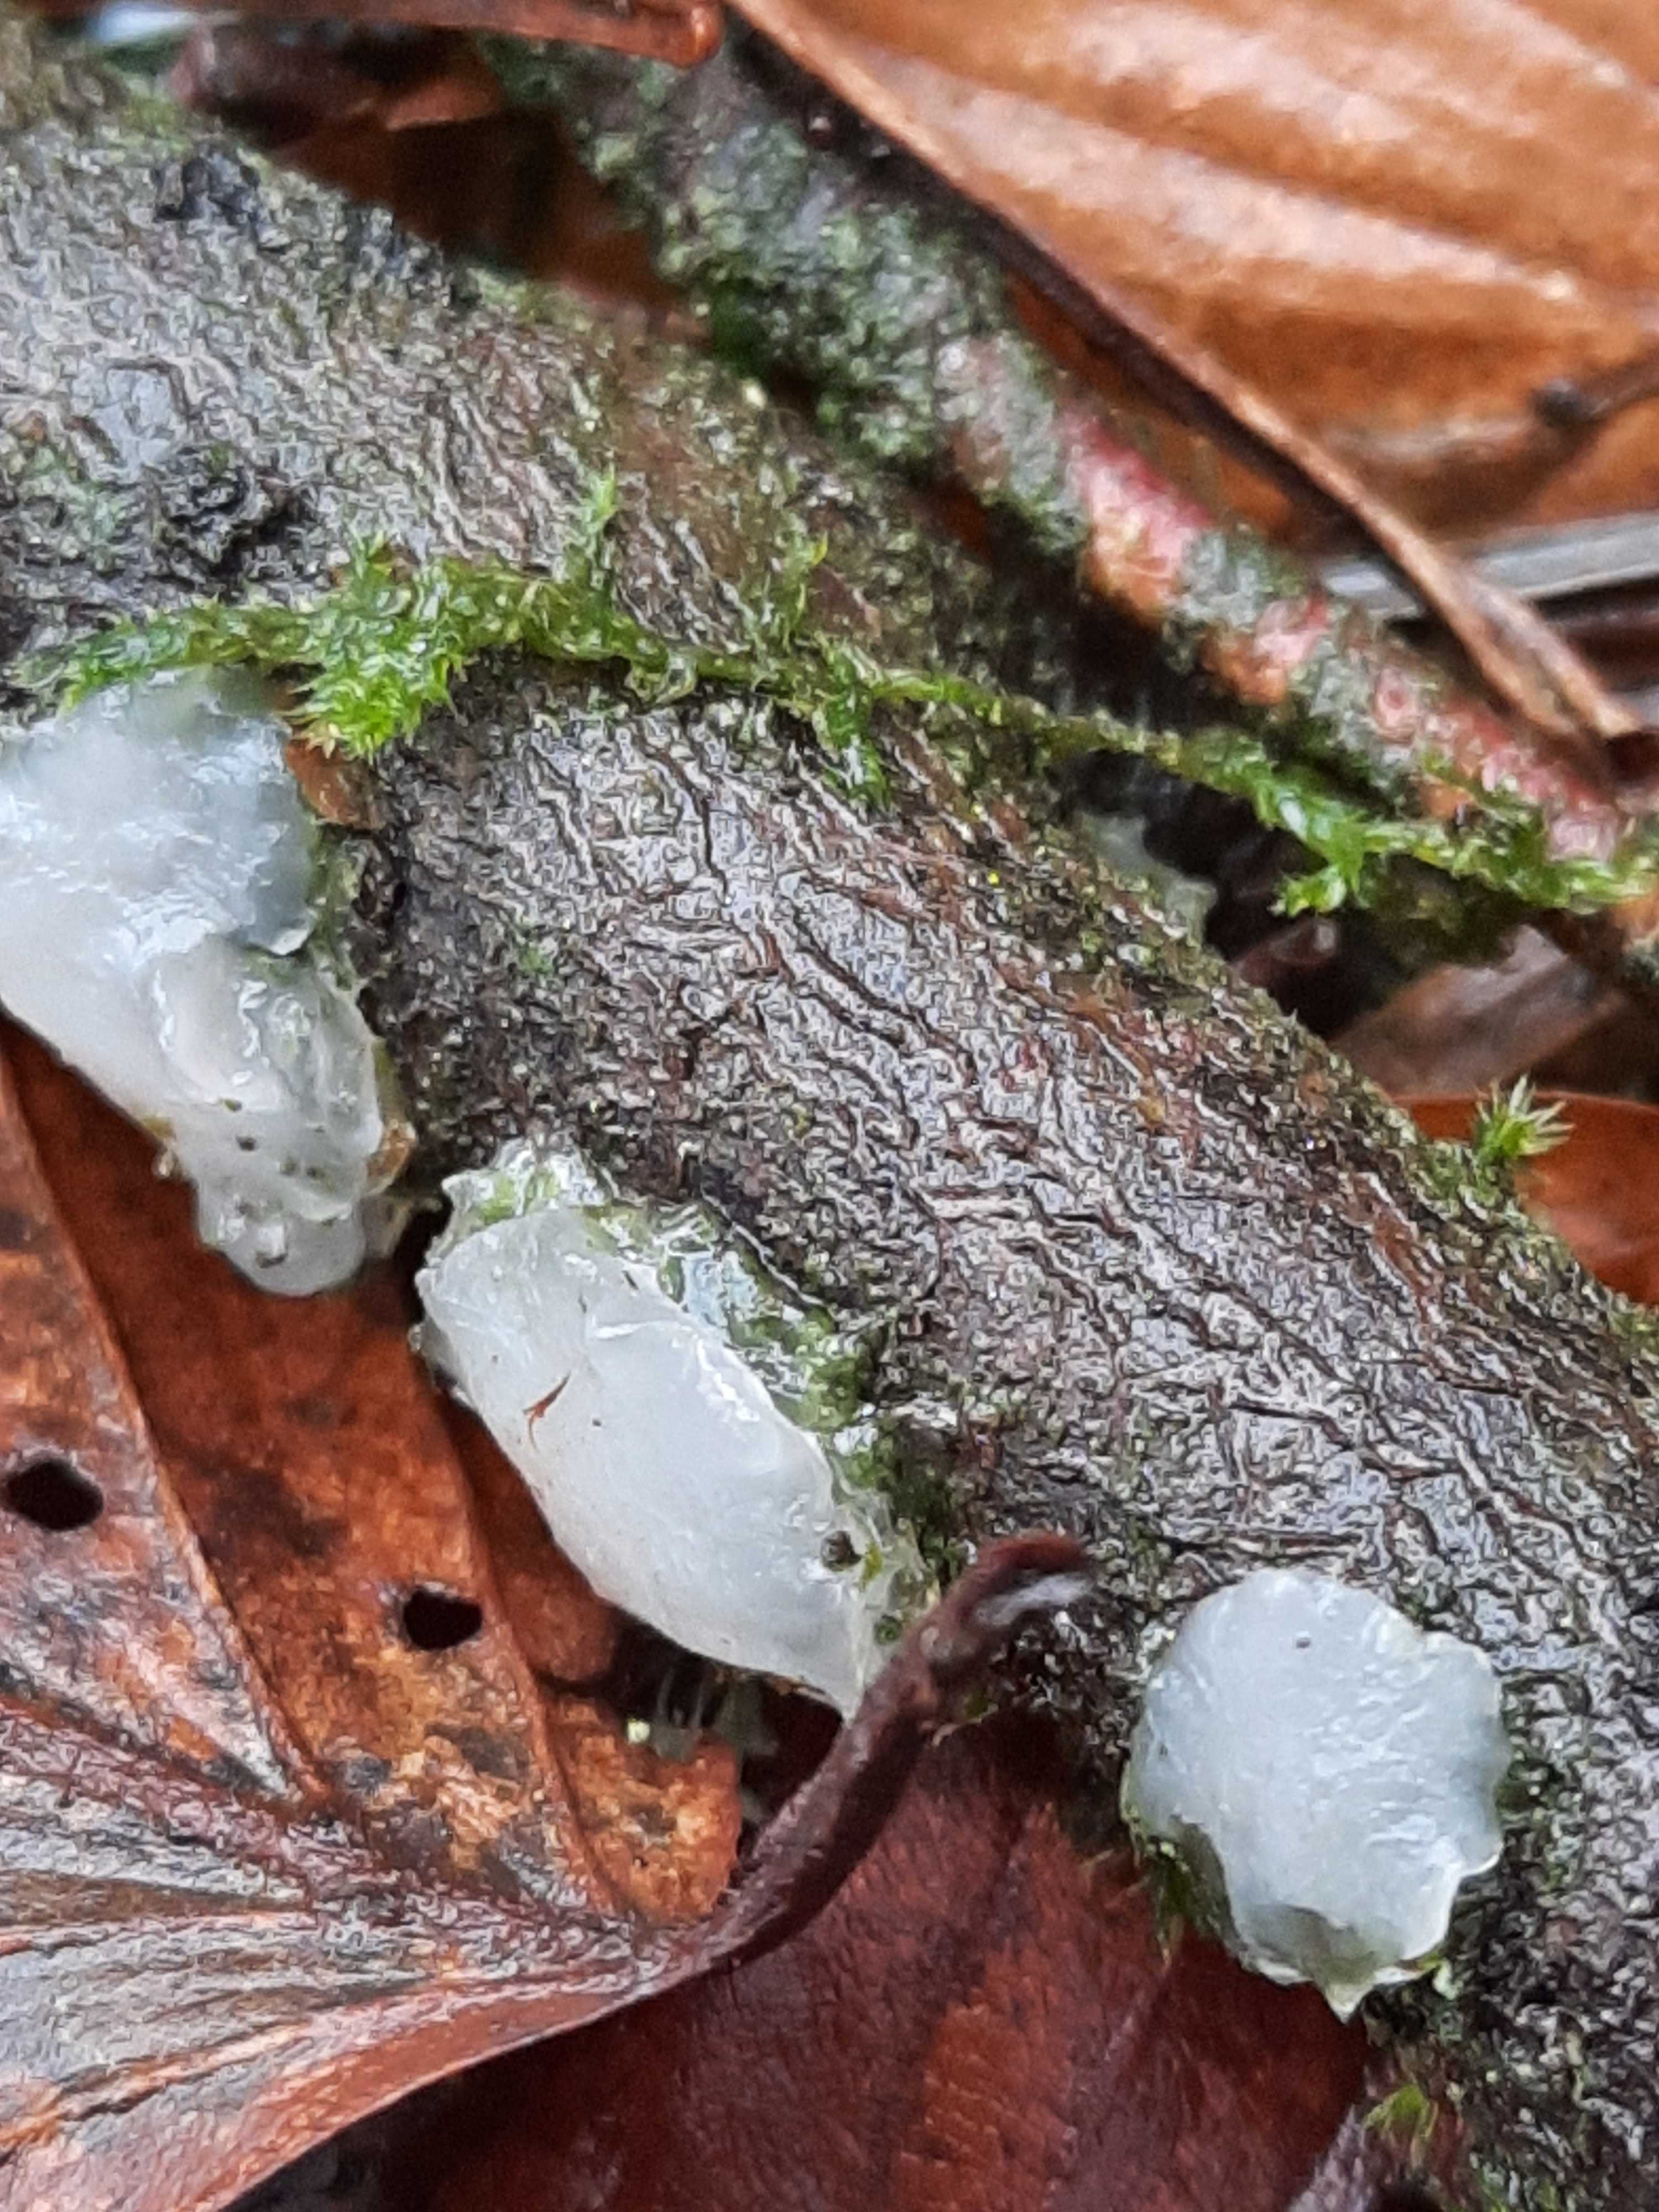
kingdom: Fungi
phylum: Basidiomycota
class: Agaricomycetes
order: Auriculariales
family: Auriculariaceae
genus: Exidia
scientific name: Exidia thuretiana
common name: hvidlig bævretop
